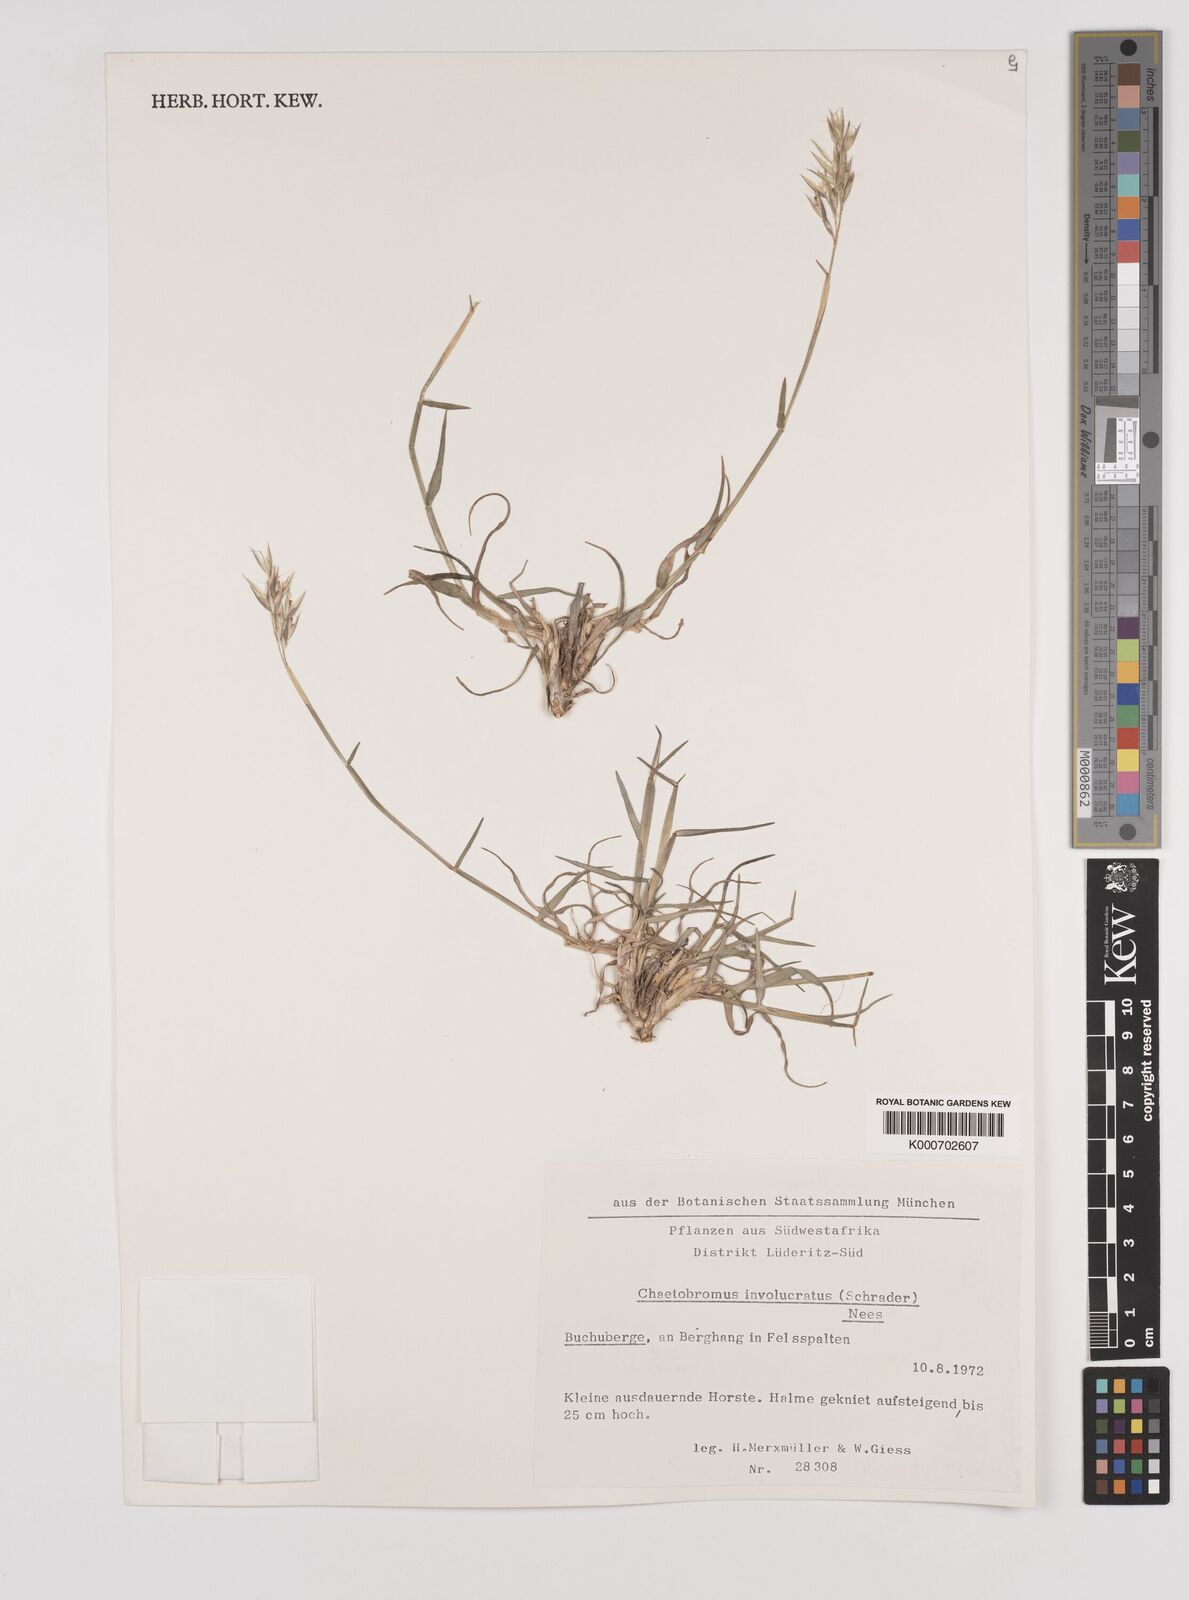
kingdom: Plantae
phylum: Tracheophyta
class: Liliopsida
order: Poales
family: Poaceae
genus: Chaetobromus
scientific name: Chaetobromus involucratus
